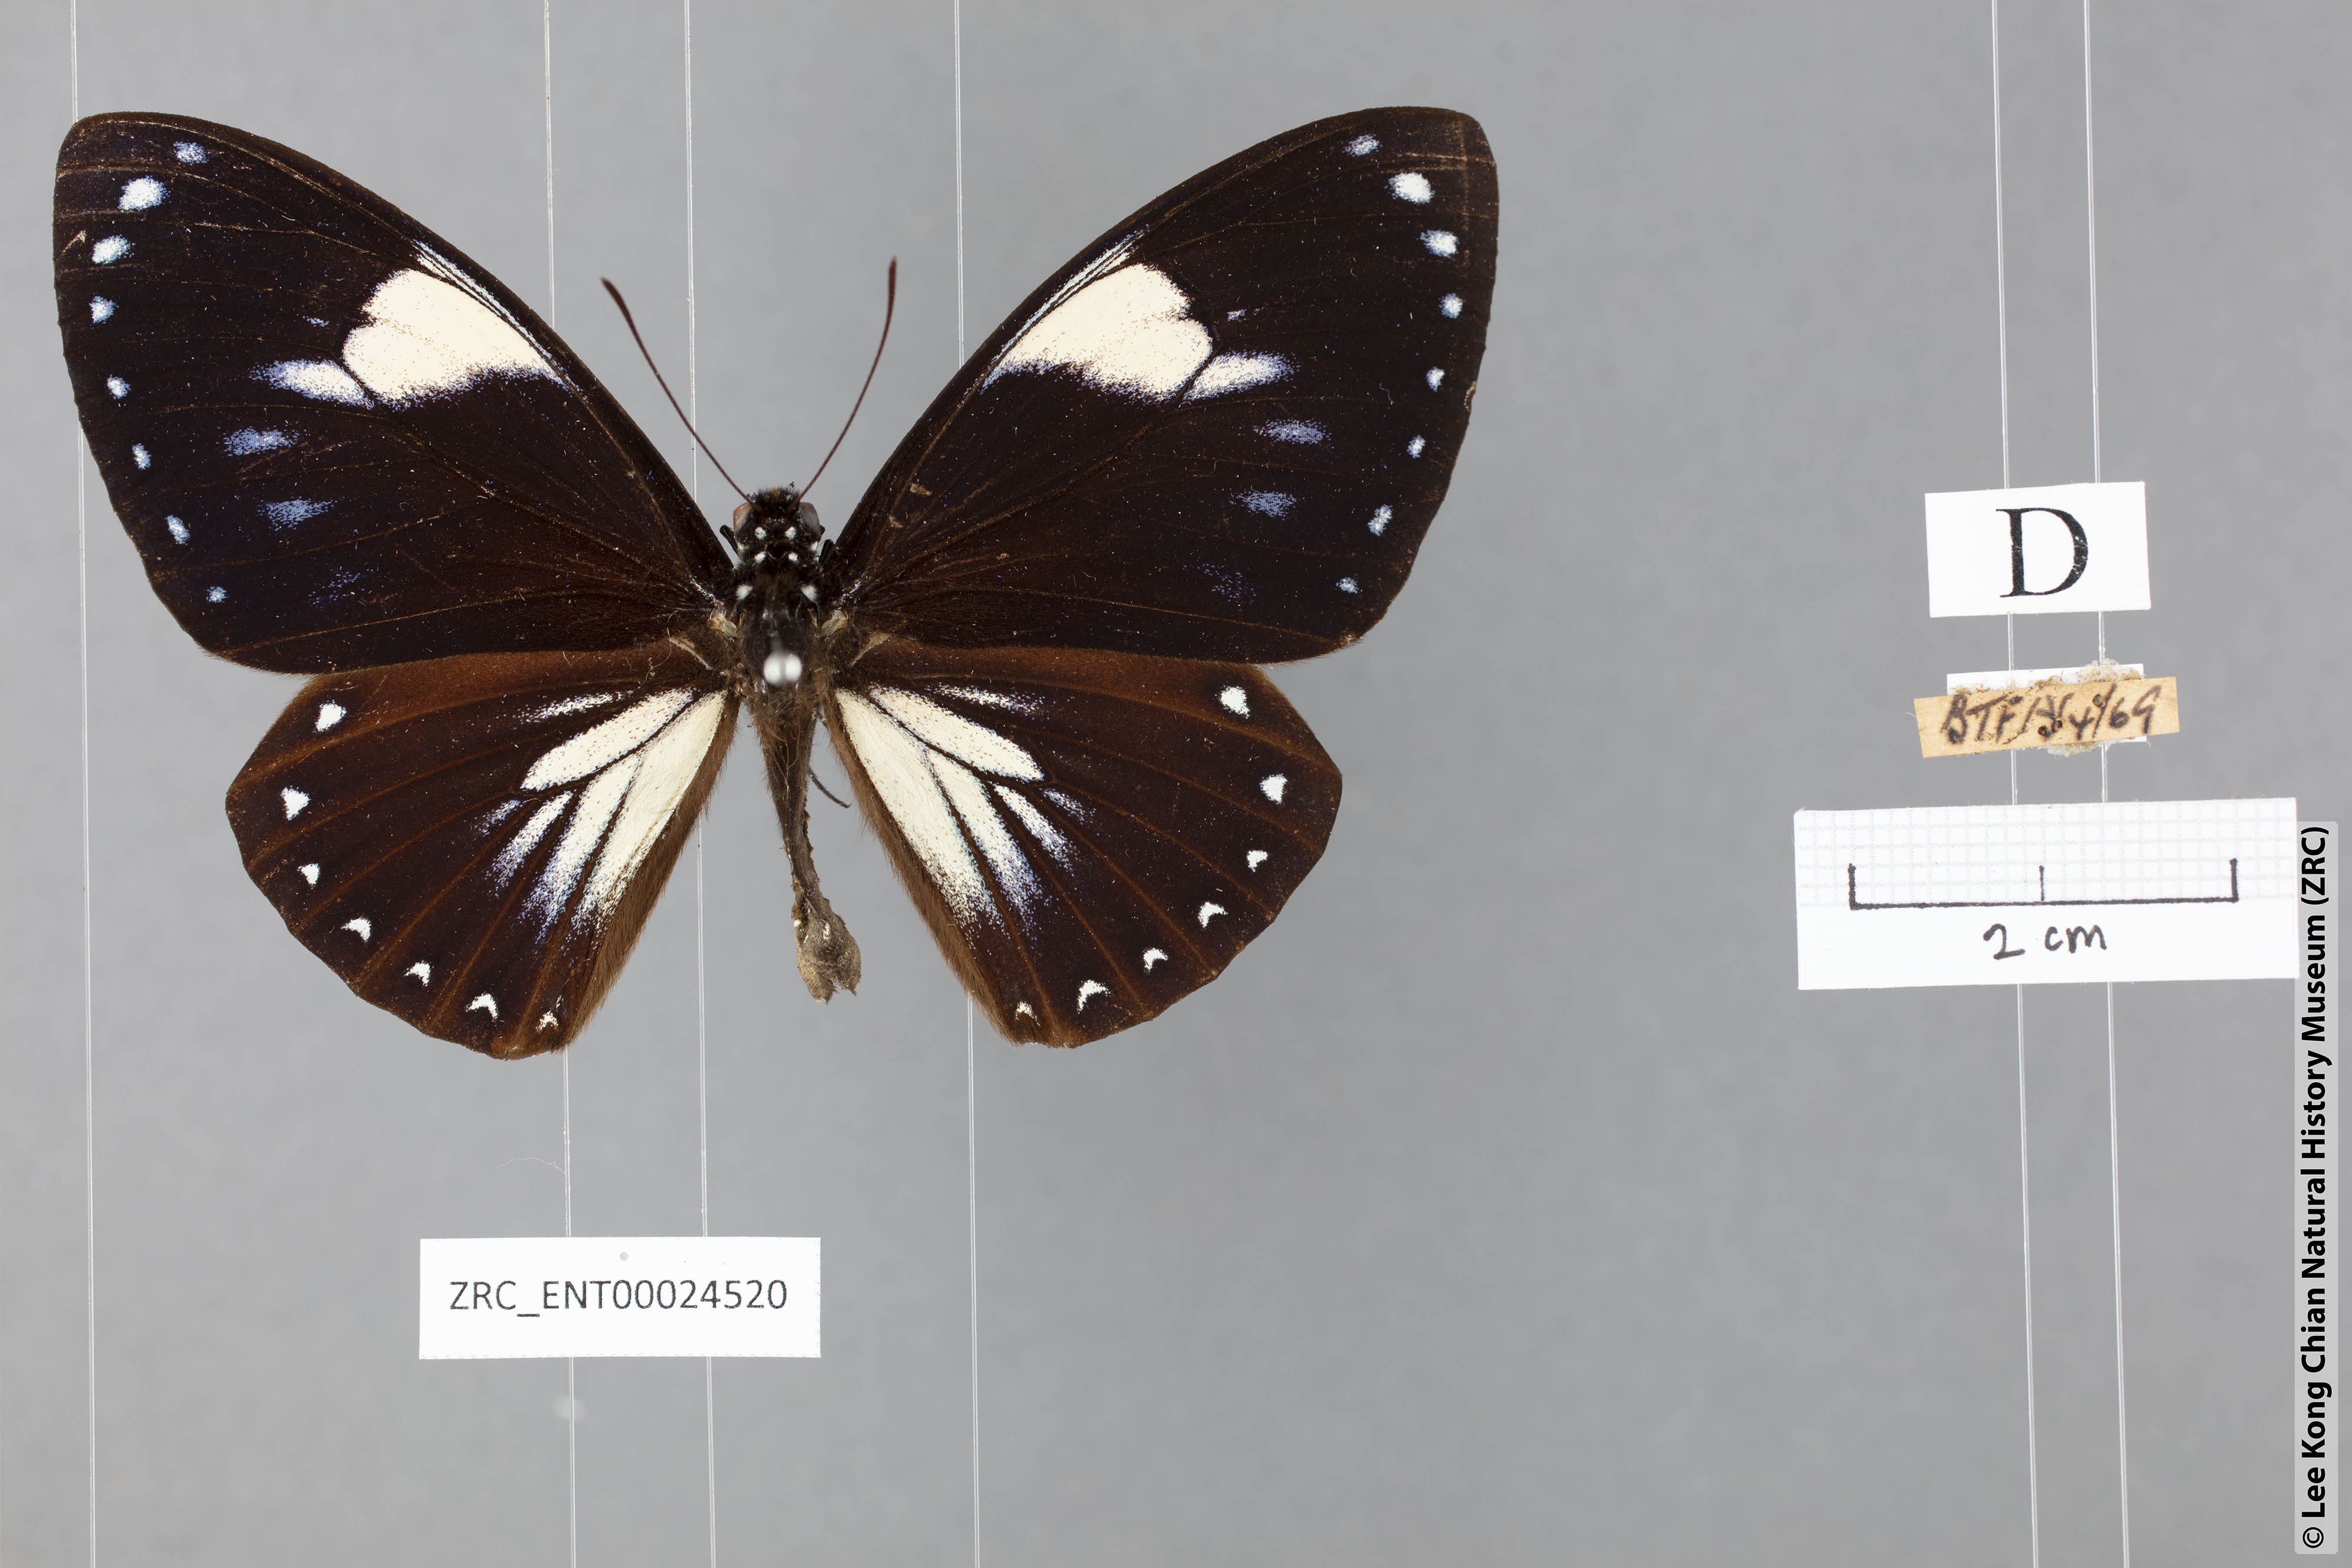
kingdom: Animalia
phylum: Arthropoda
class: Insecta
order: Lepidoptera
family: Papilionidae
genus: Chilasa
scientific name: Chilasa paradoxa
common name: Great mime
